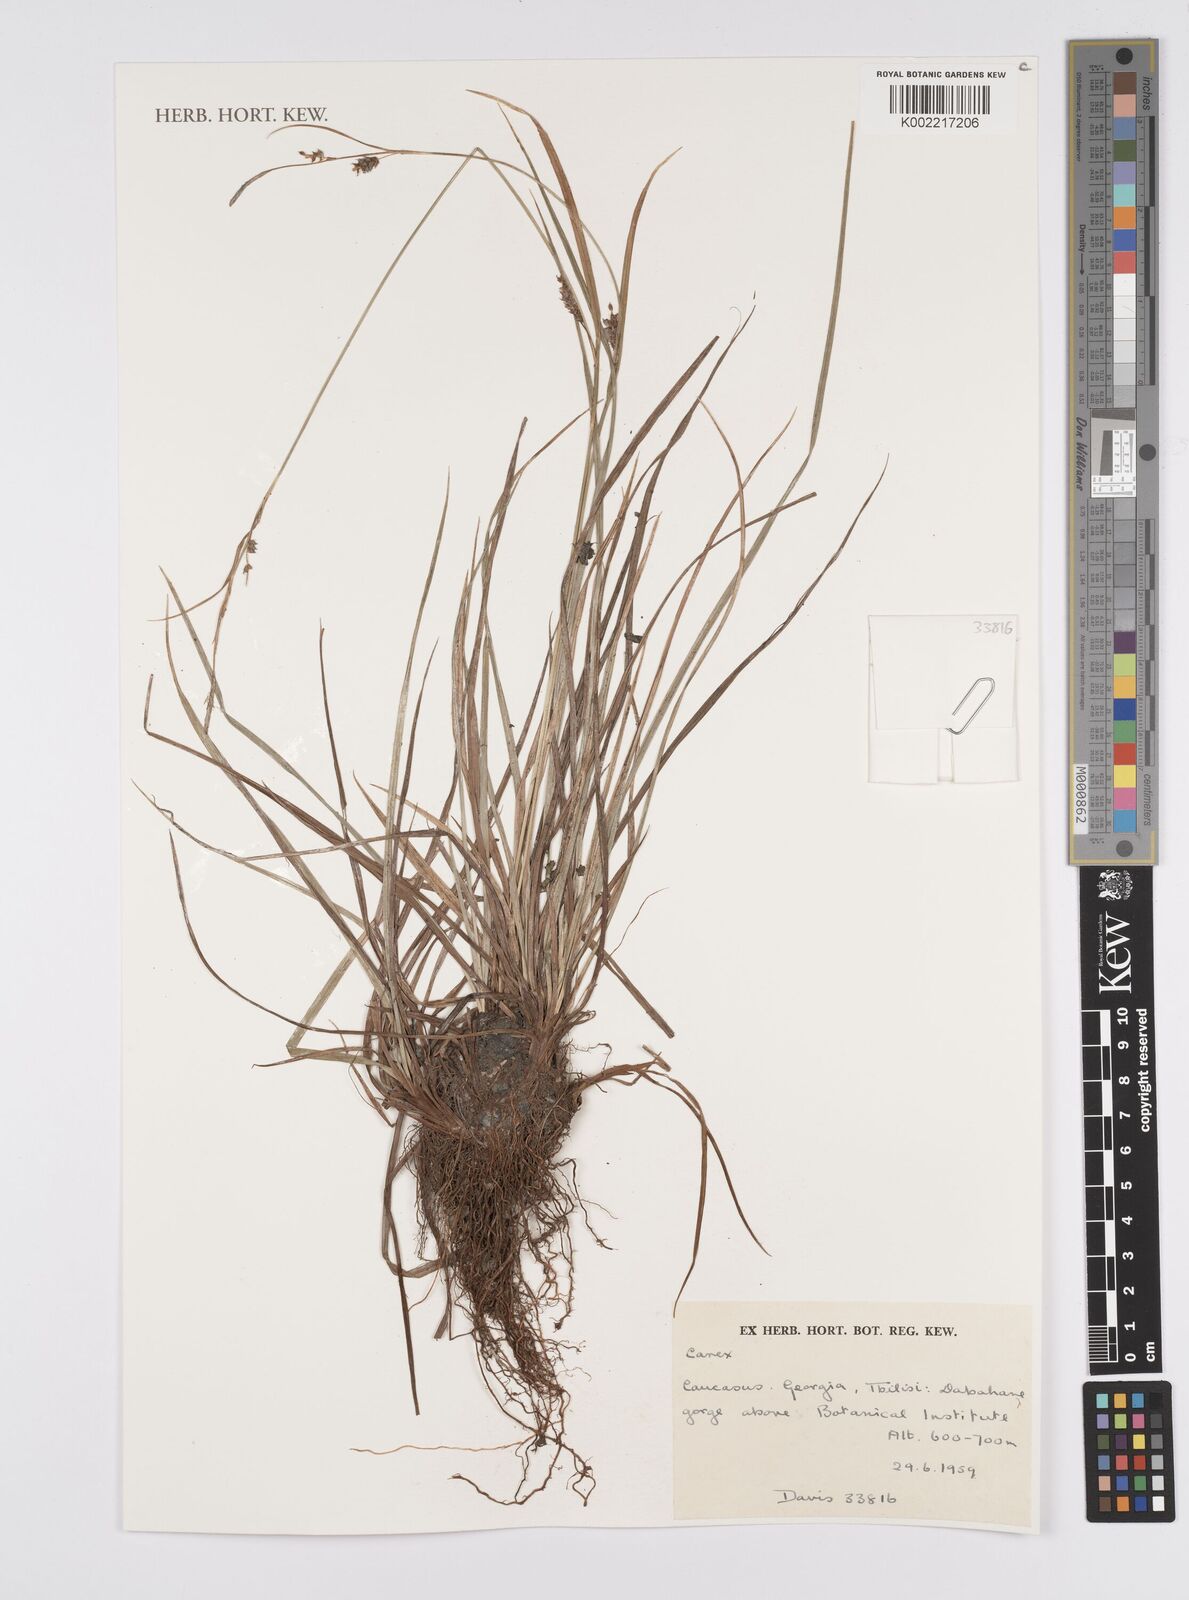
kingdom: Plantae
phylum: Tracheophyta
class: Liliopsida
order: Poales
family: Cyperaceae
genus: Carex
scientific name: Carex
